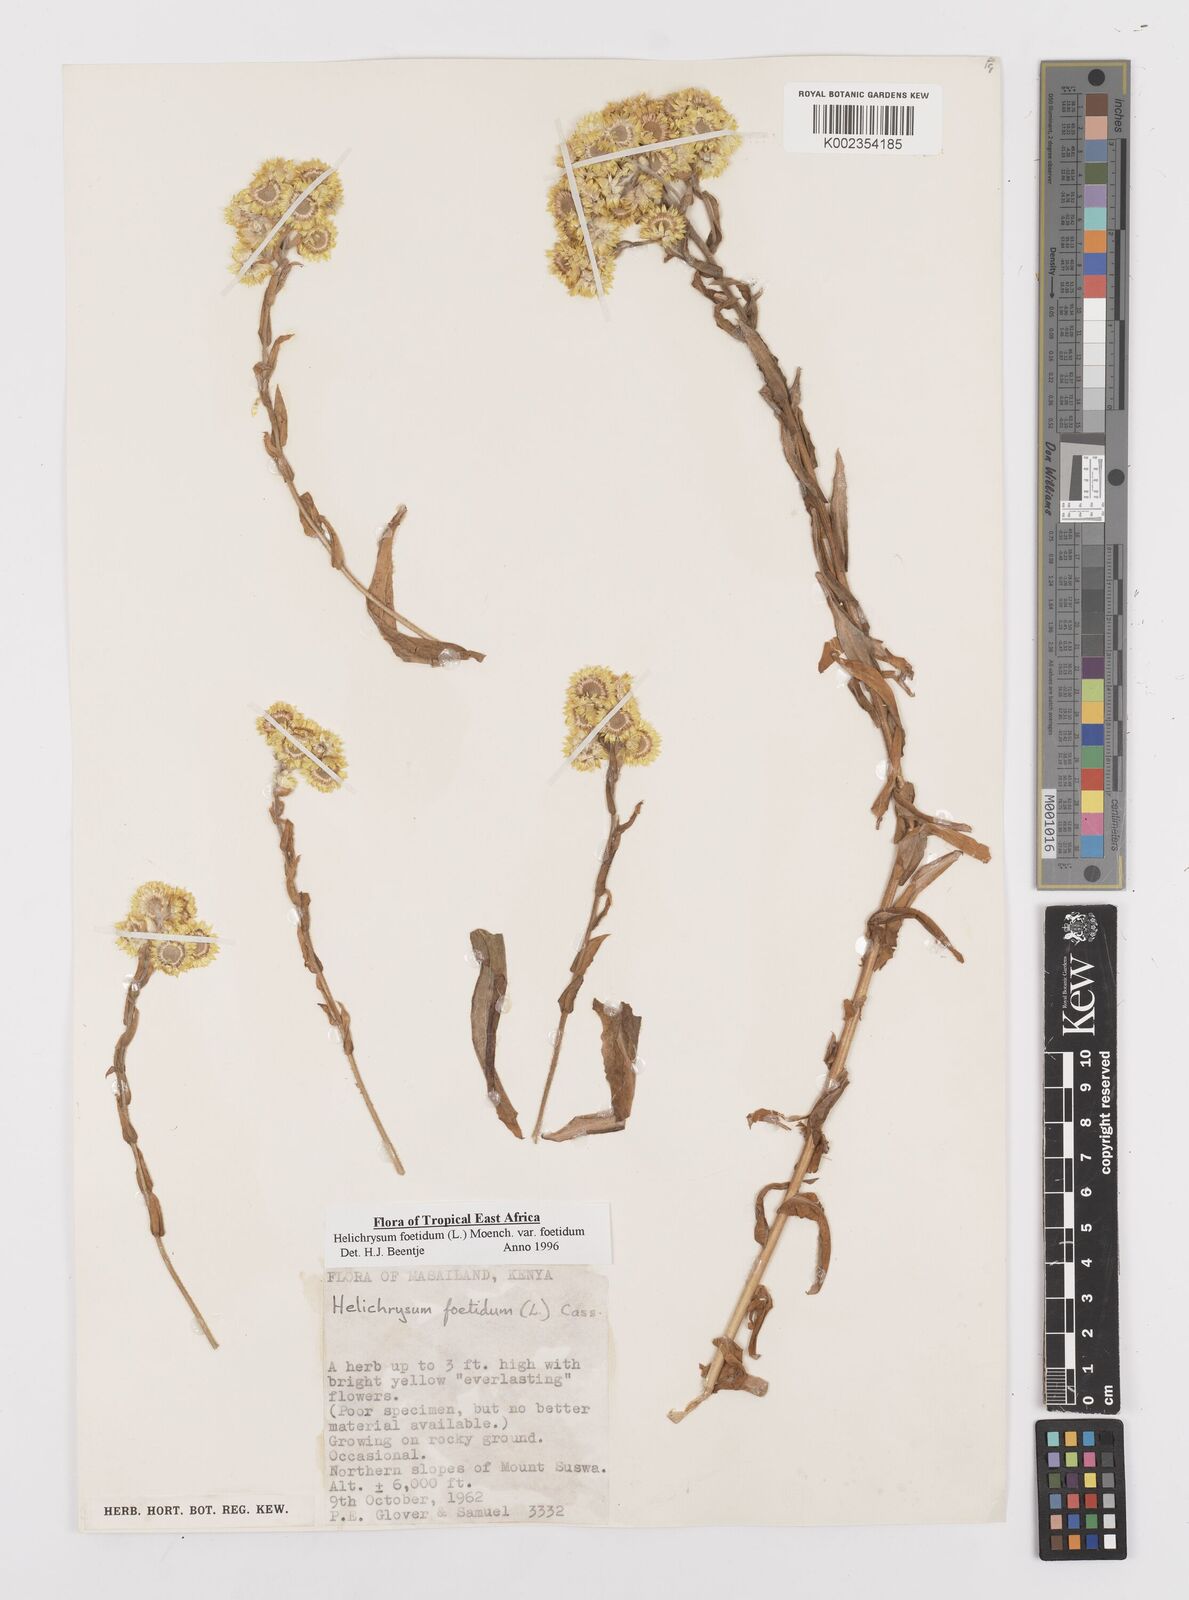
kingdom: Plantae
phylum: Tracheophyta
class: Magnoliopsida
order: Asterales
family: Asteraceae
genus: Helichrysum
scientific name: Helichrysum foetidum
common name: Stinking everlasting
